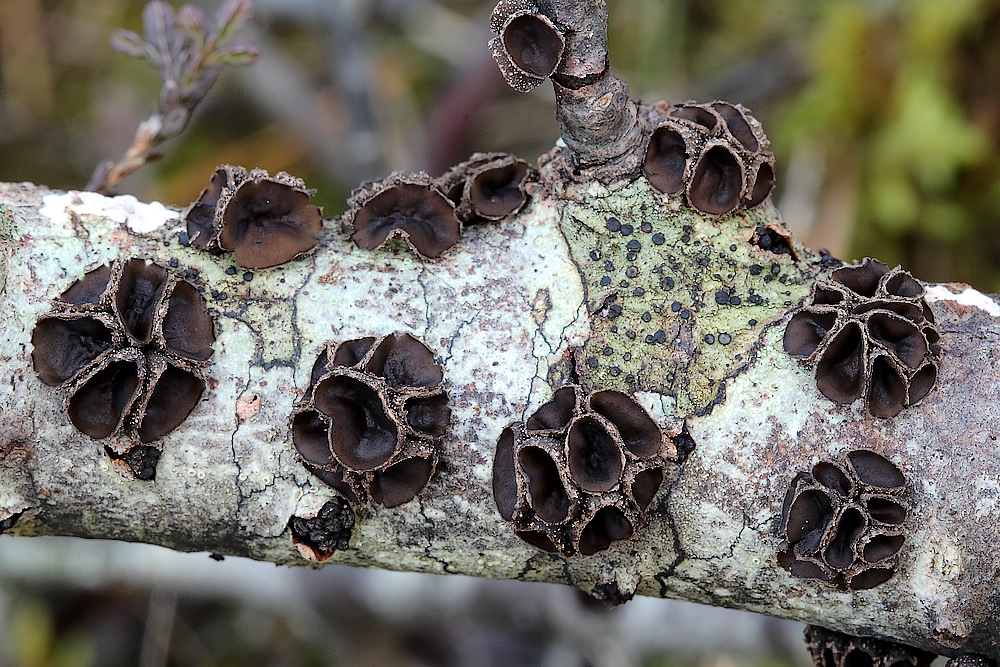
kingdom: Fungi
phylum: Ascomycota
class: Leotiomycetes
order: Helotiales
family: Sclerotiniaceae
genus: Sclerencoelia
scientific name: Sclerencoelia fascicularis
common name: poppel-læderskive
